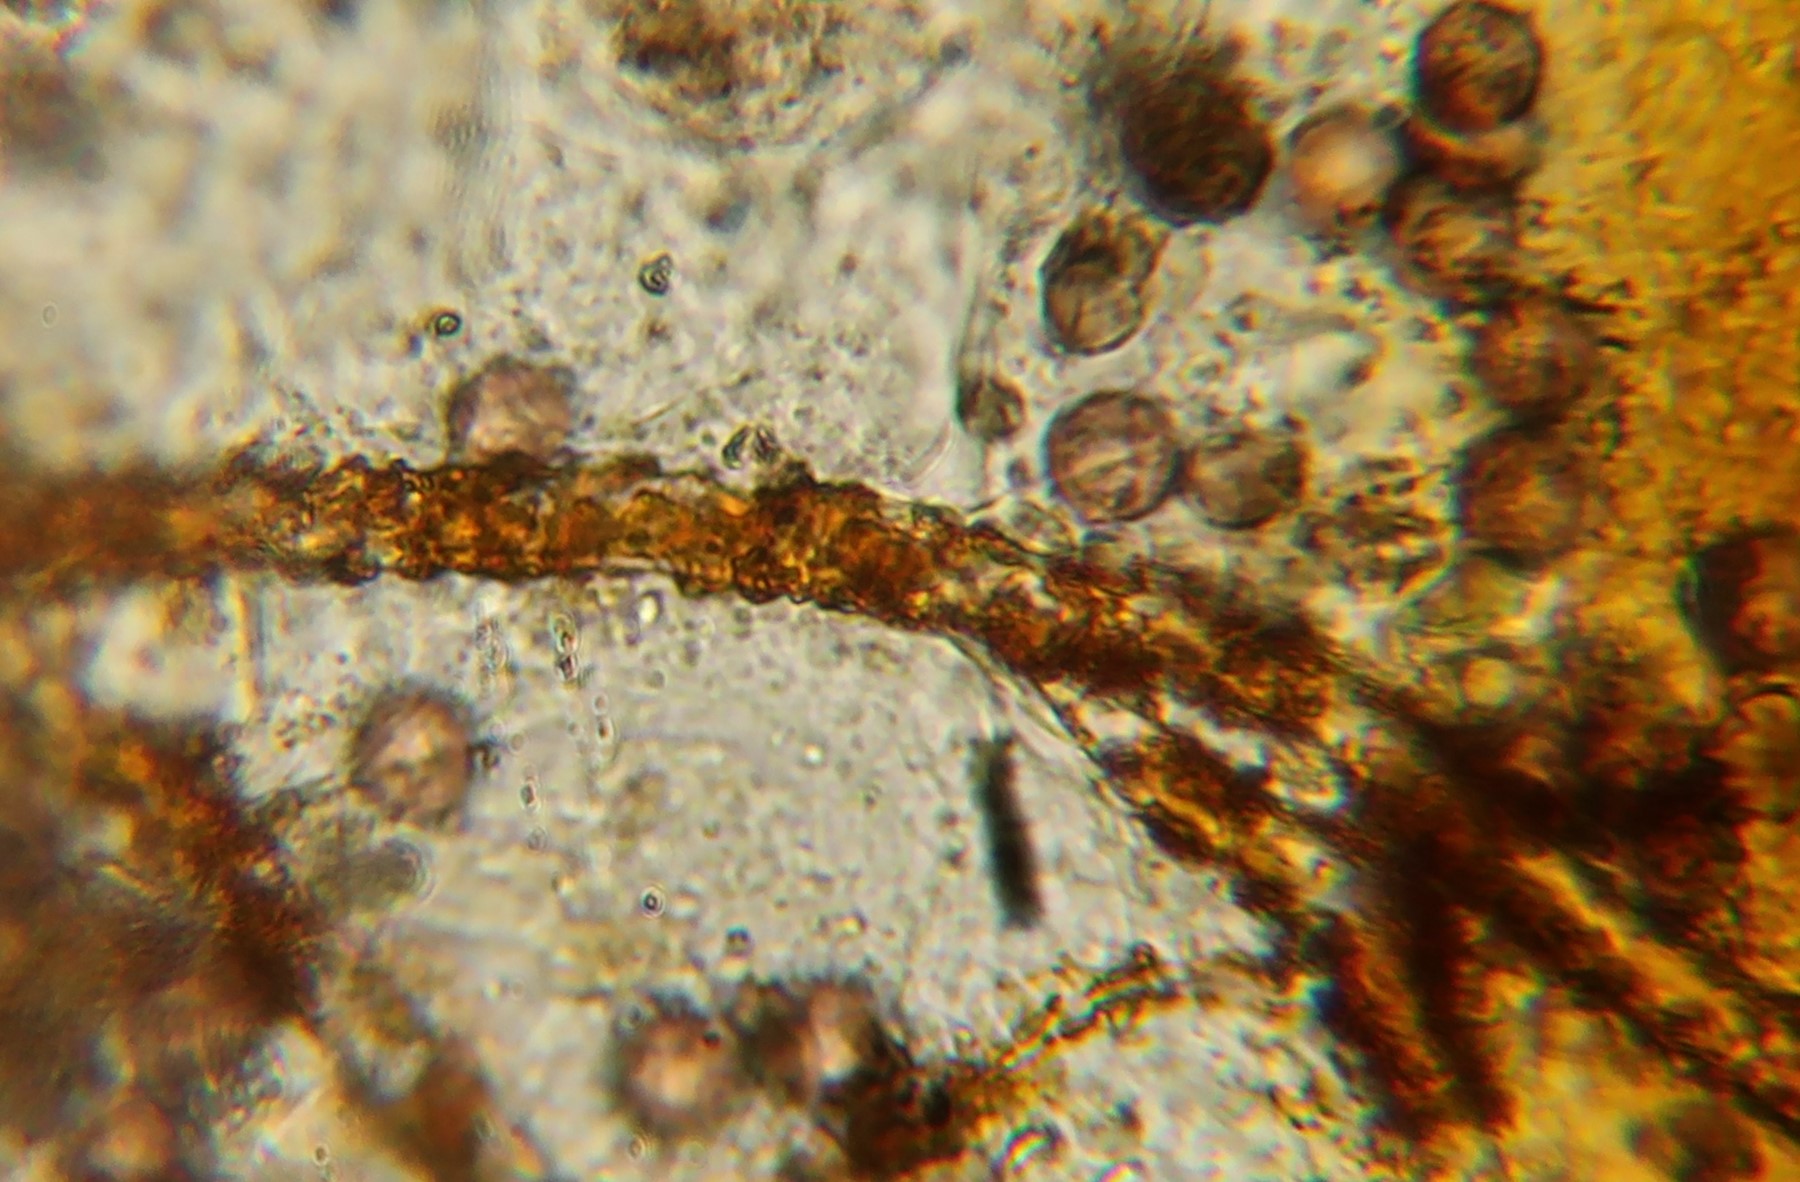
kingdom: Protozoa
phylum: Mycetozoa
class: Myxomycetes
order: Physarales
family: Physaraceae
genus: Physarum
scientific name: Physarum
